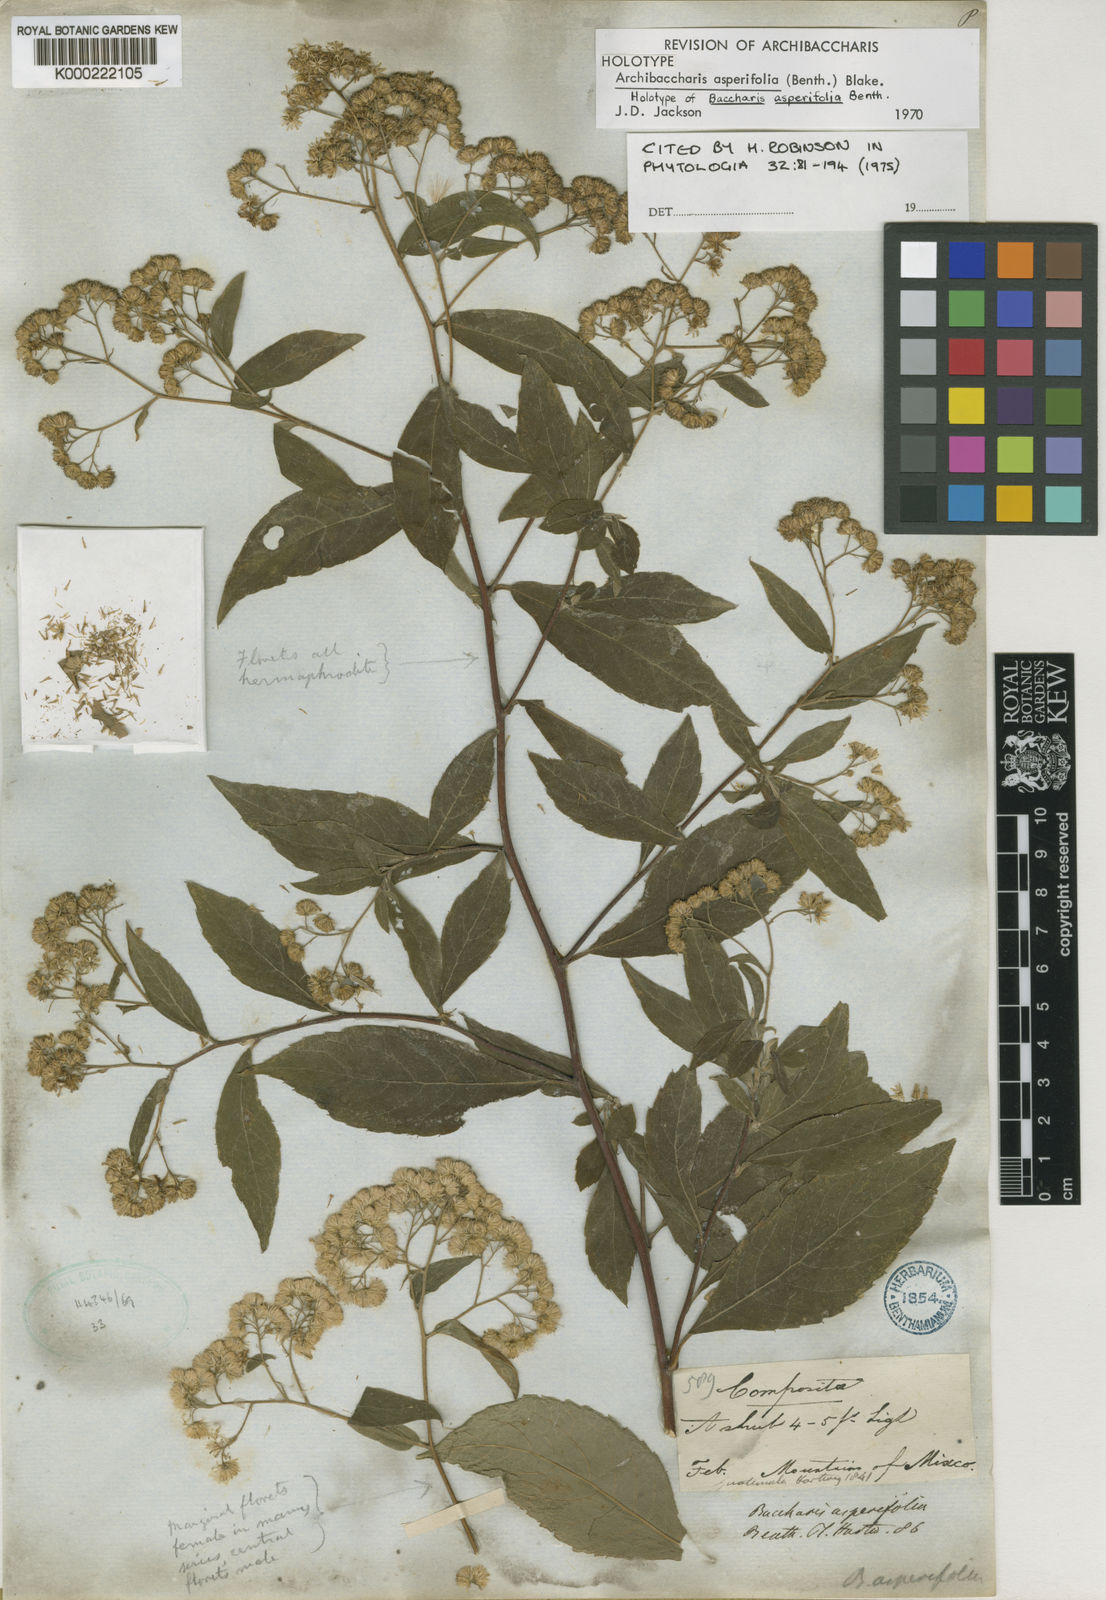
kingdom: Plantae
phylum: Tracheophyta
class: Magnoliopsida
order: Asterales
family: Asteraceae
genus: Archibaccharis
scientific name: Archibaccharis asperifolia
